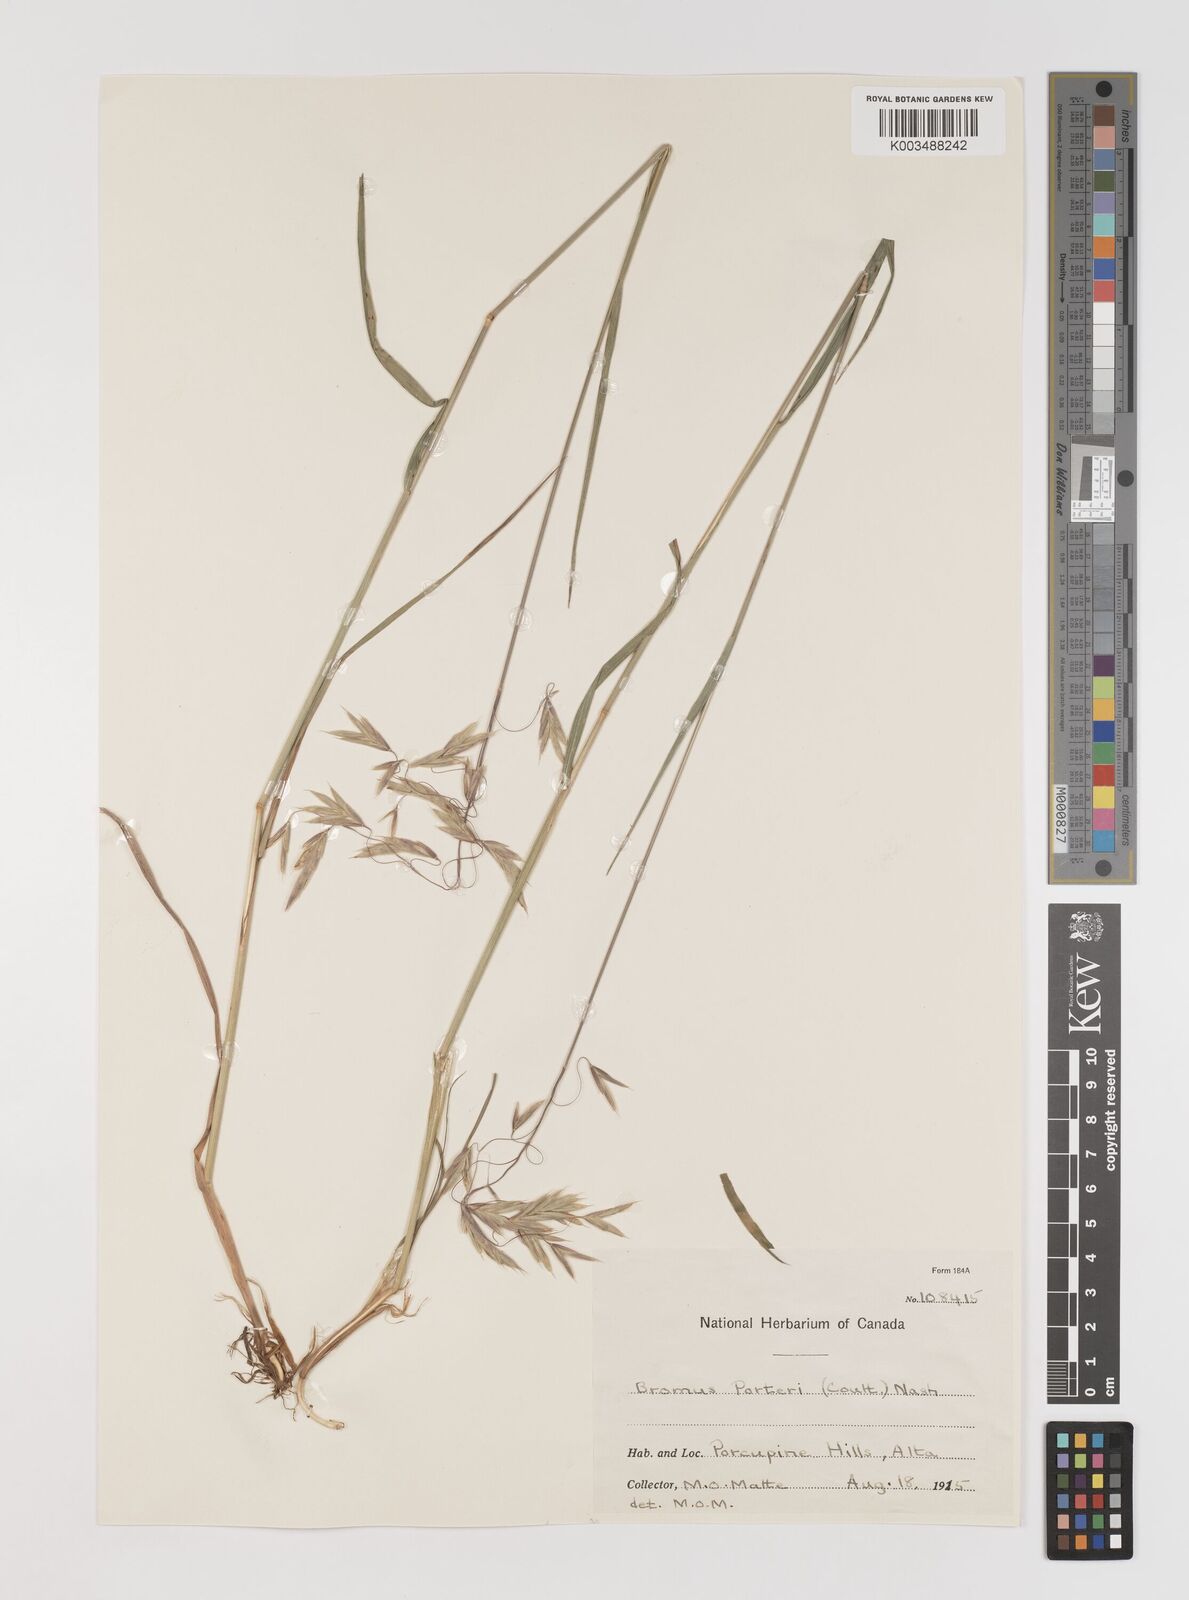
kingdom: Plantae
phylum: Tracheophyta
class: Liliopsida
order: Poales
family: Poaceae
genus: Bromus
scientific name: Bromus porteri
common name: Nodding brome
